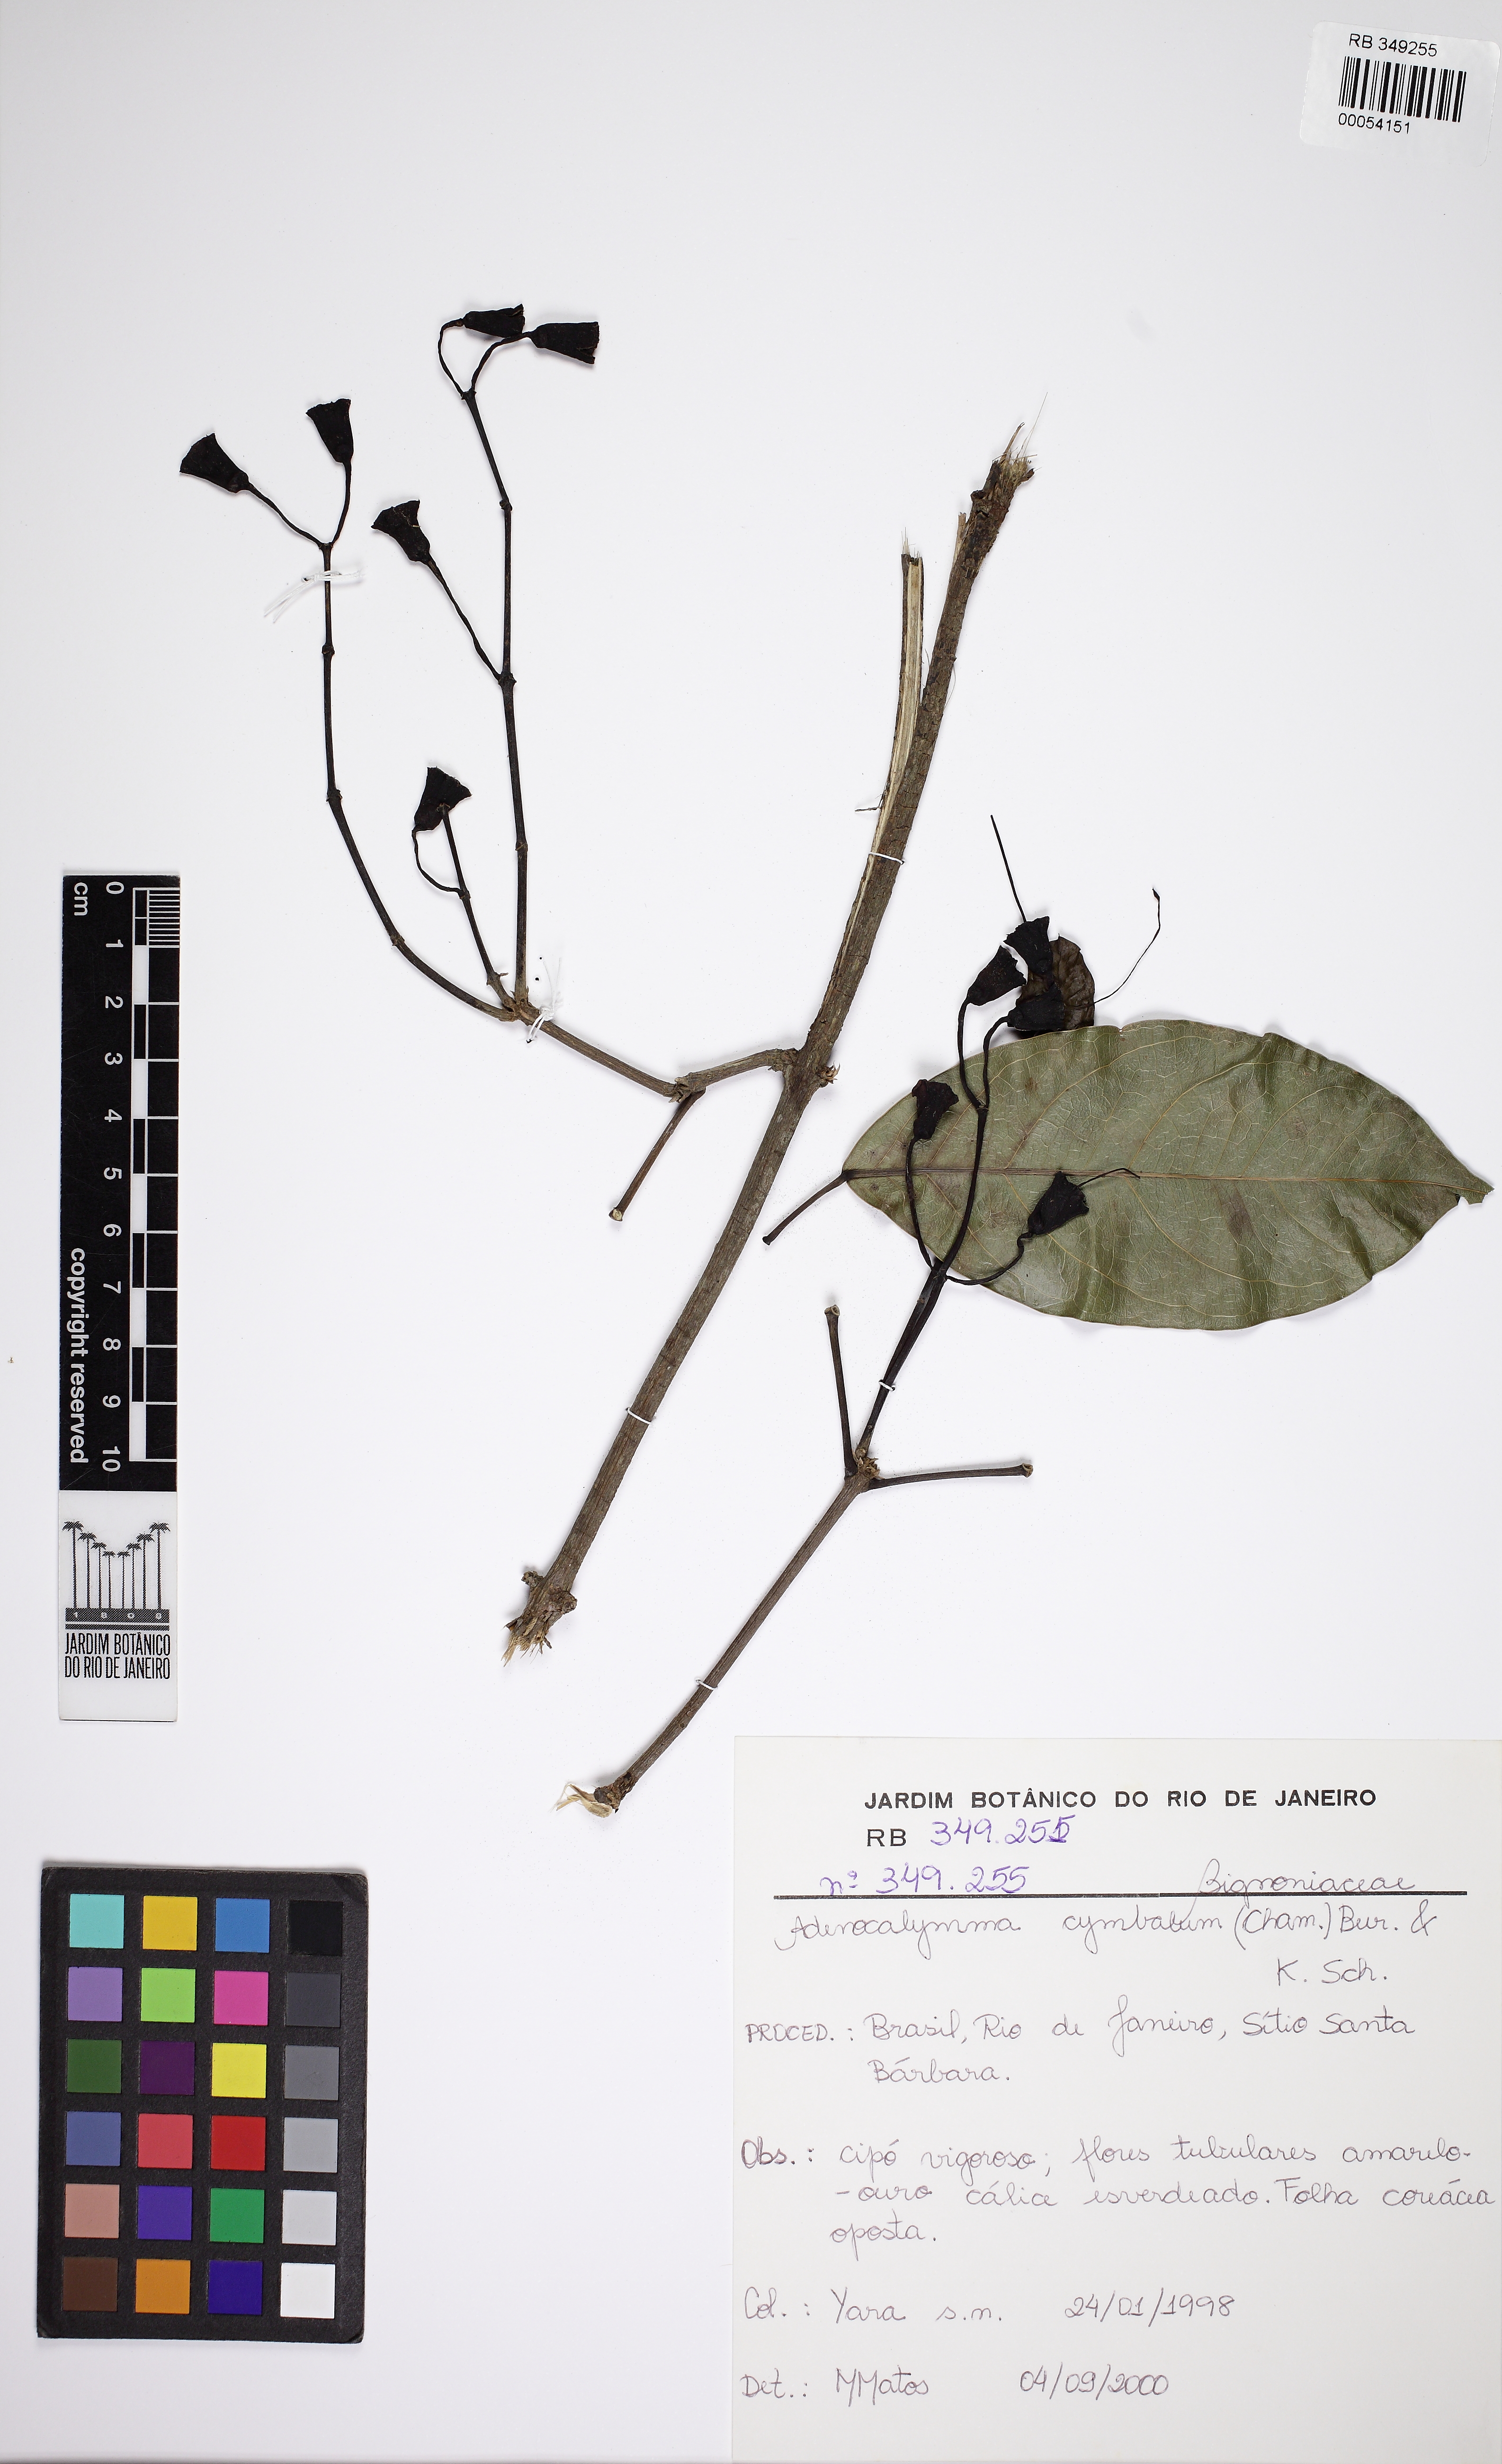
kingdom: Plantae
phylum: Tracheophyta
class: Magnoliopsida
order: Lamiales
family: Bignoniaceae
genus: Adenocalymma
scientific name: Adenocalymma cymbalum
